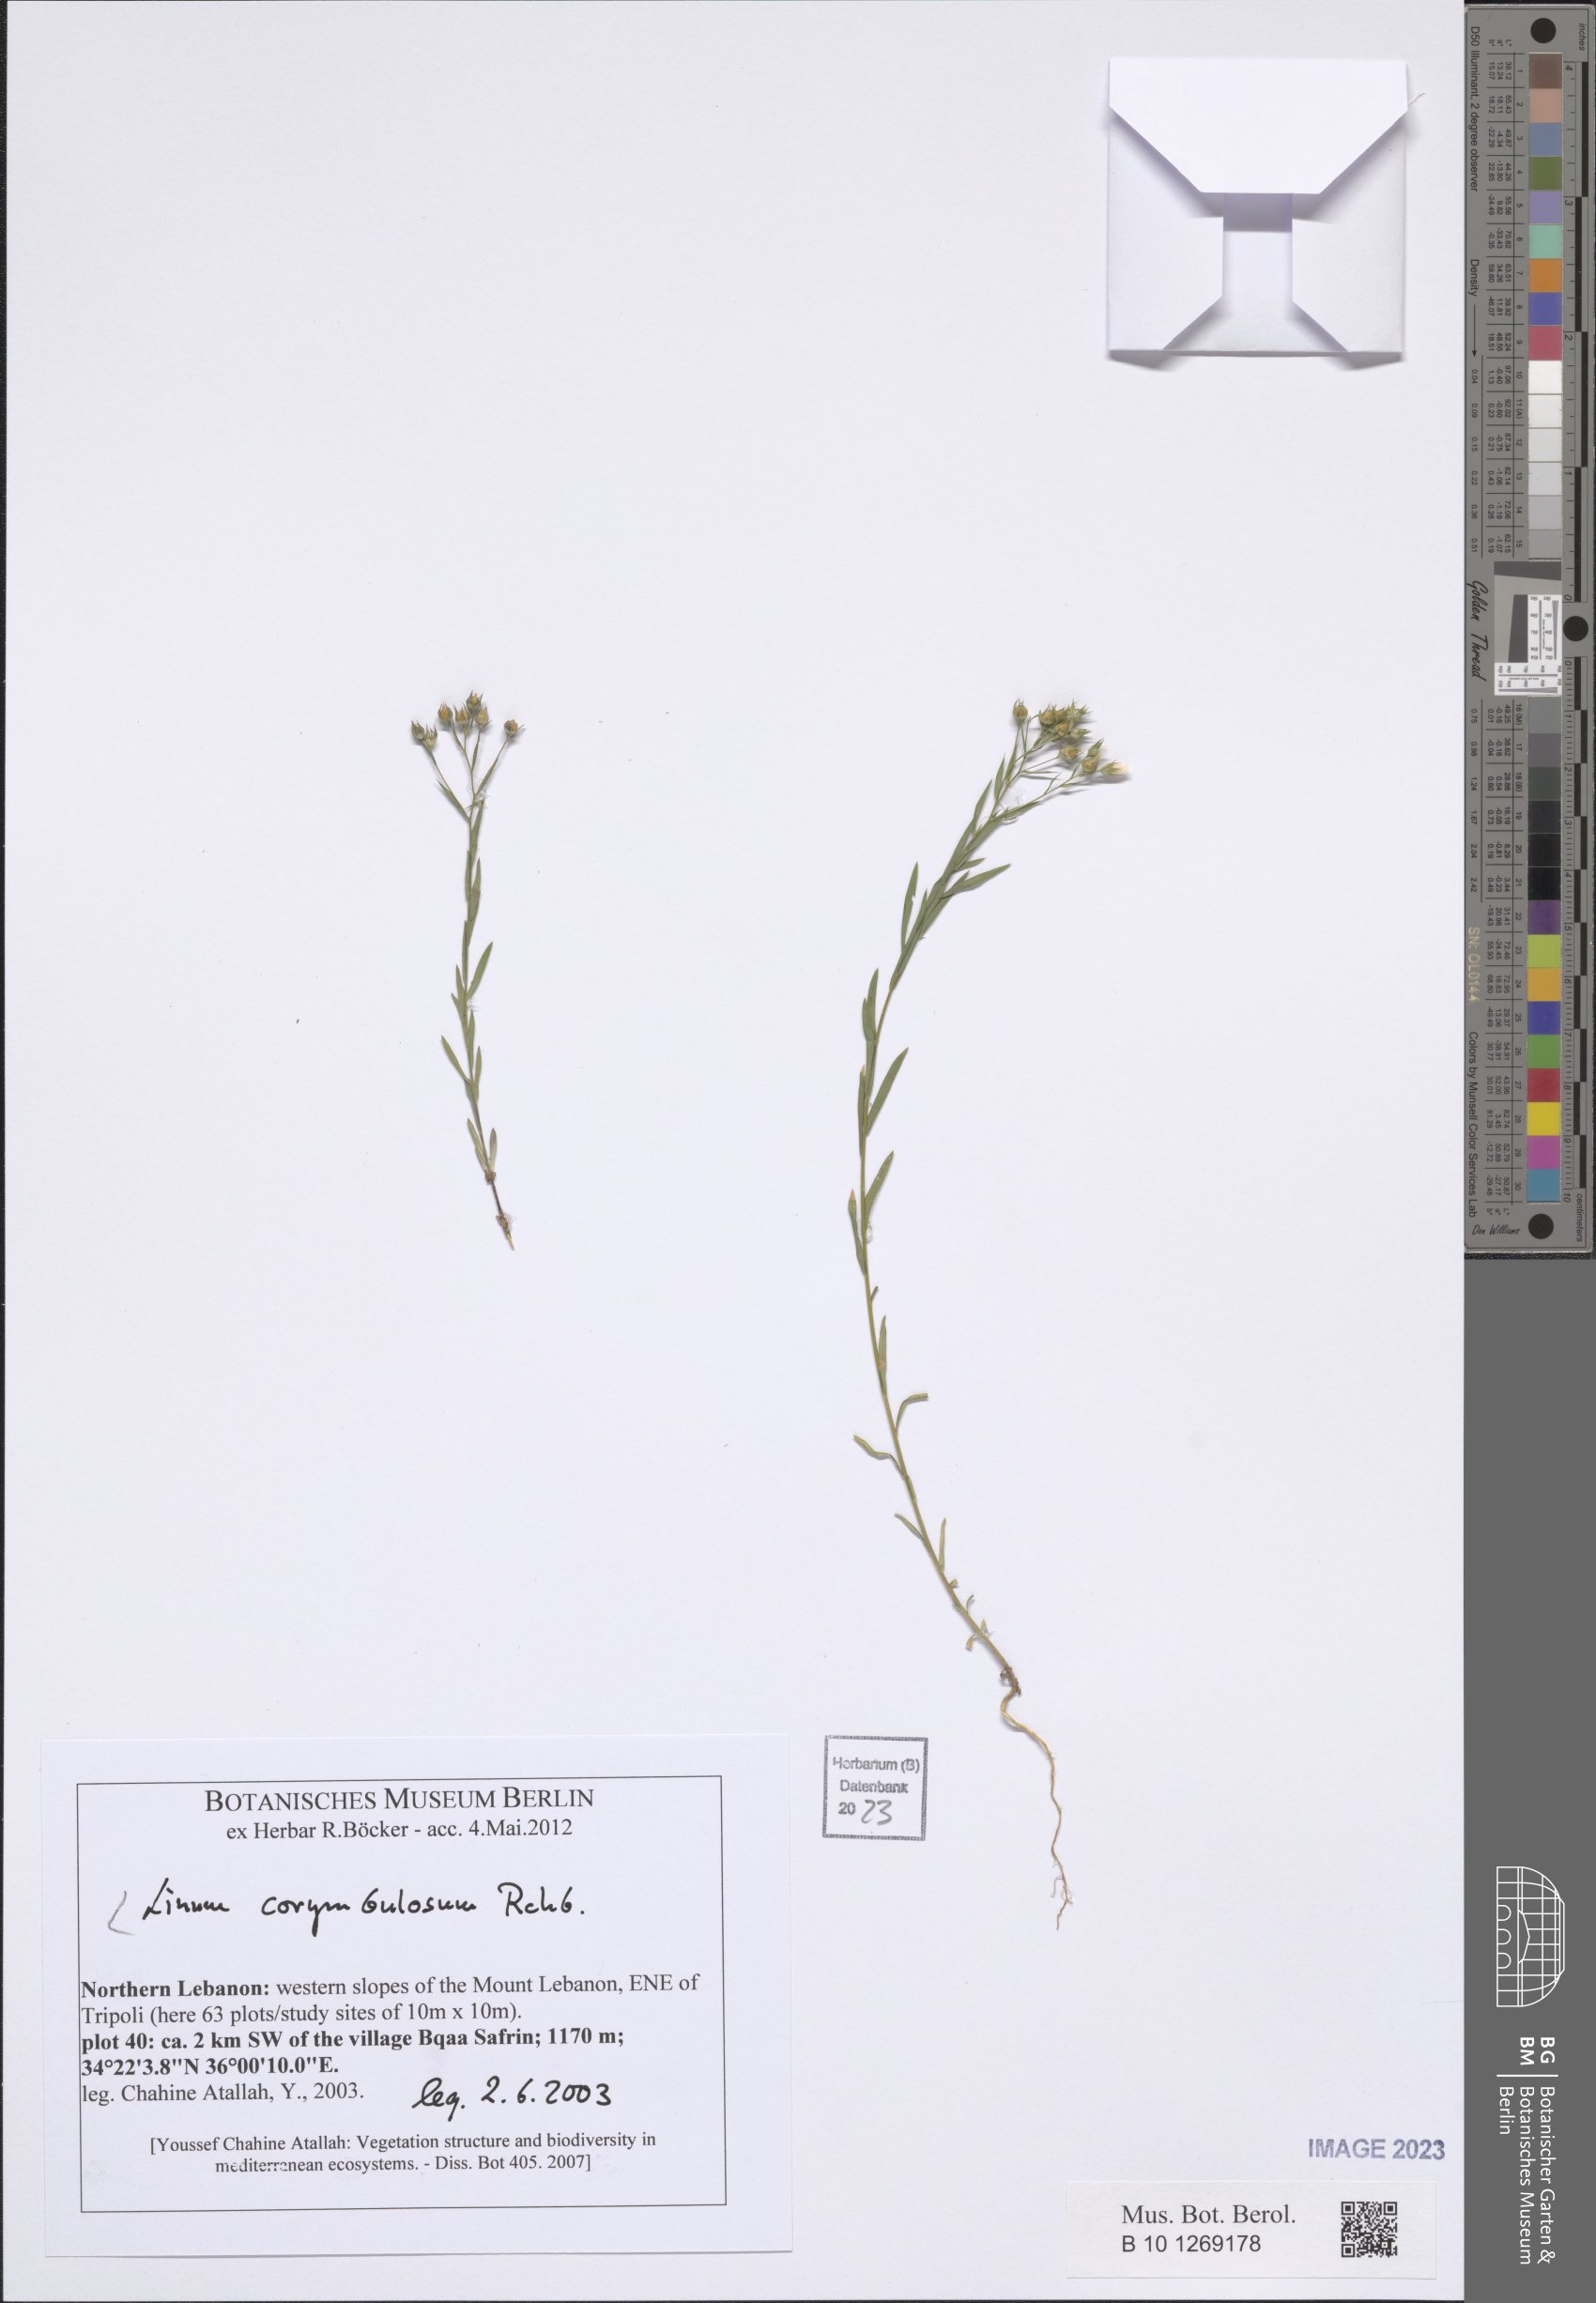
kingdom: Plantae
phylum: Tracheophyta
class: Magnoliopsida
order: Malpighiales
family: Linaceae
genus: Linum
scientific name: Linum corymbulosum
